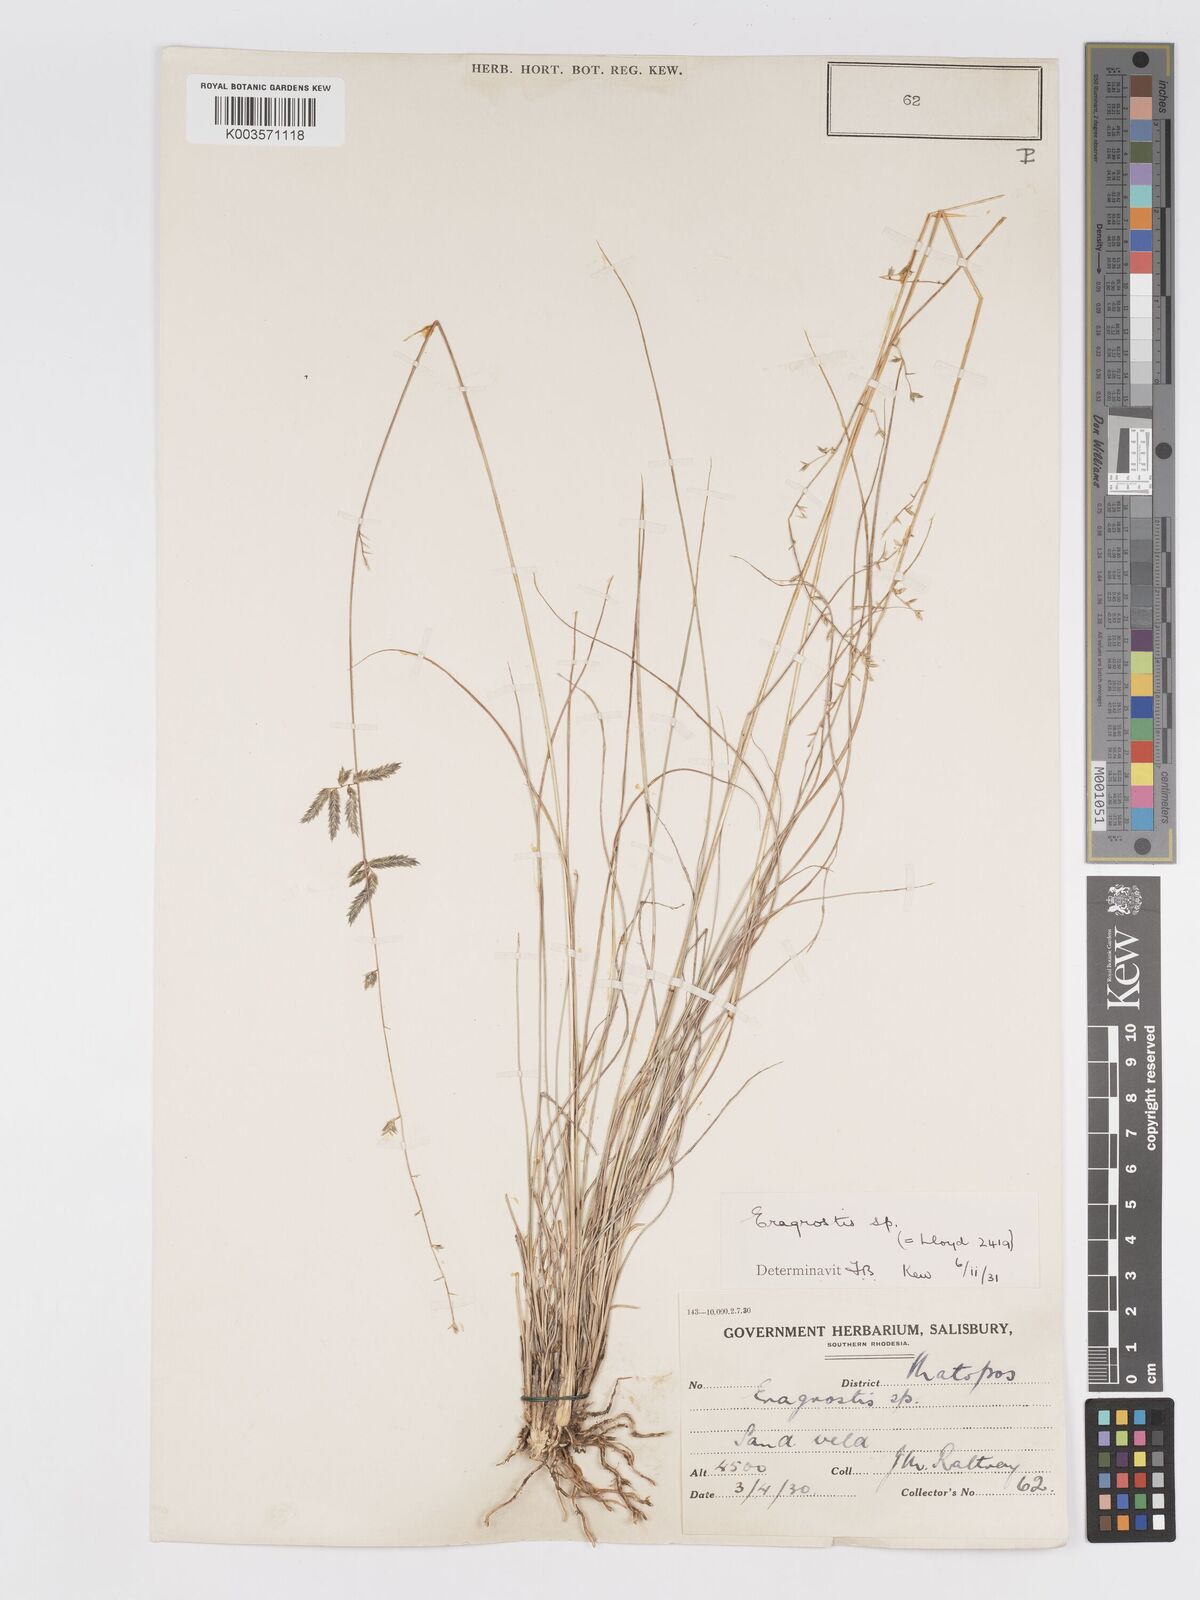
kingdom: Plantae
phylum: Tracheophyta
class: Liliopsida
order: Poales
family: Poaceae
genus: Eragrostis
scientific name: Eragrostis nindensis
